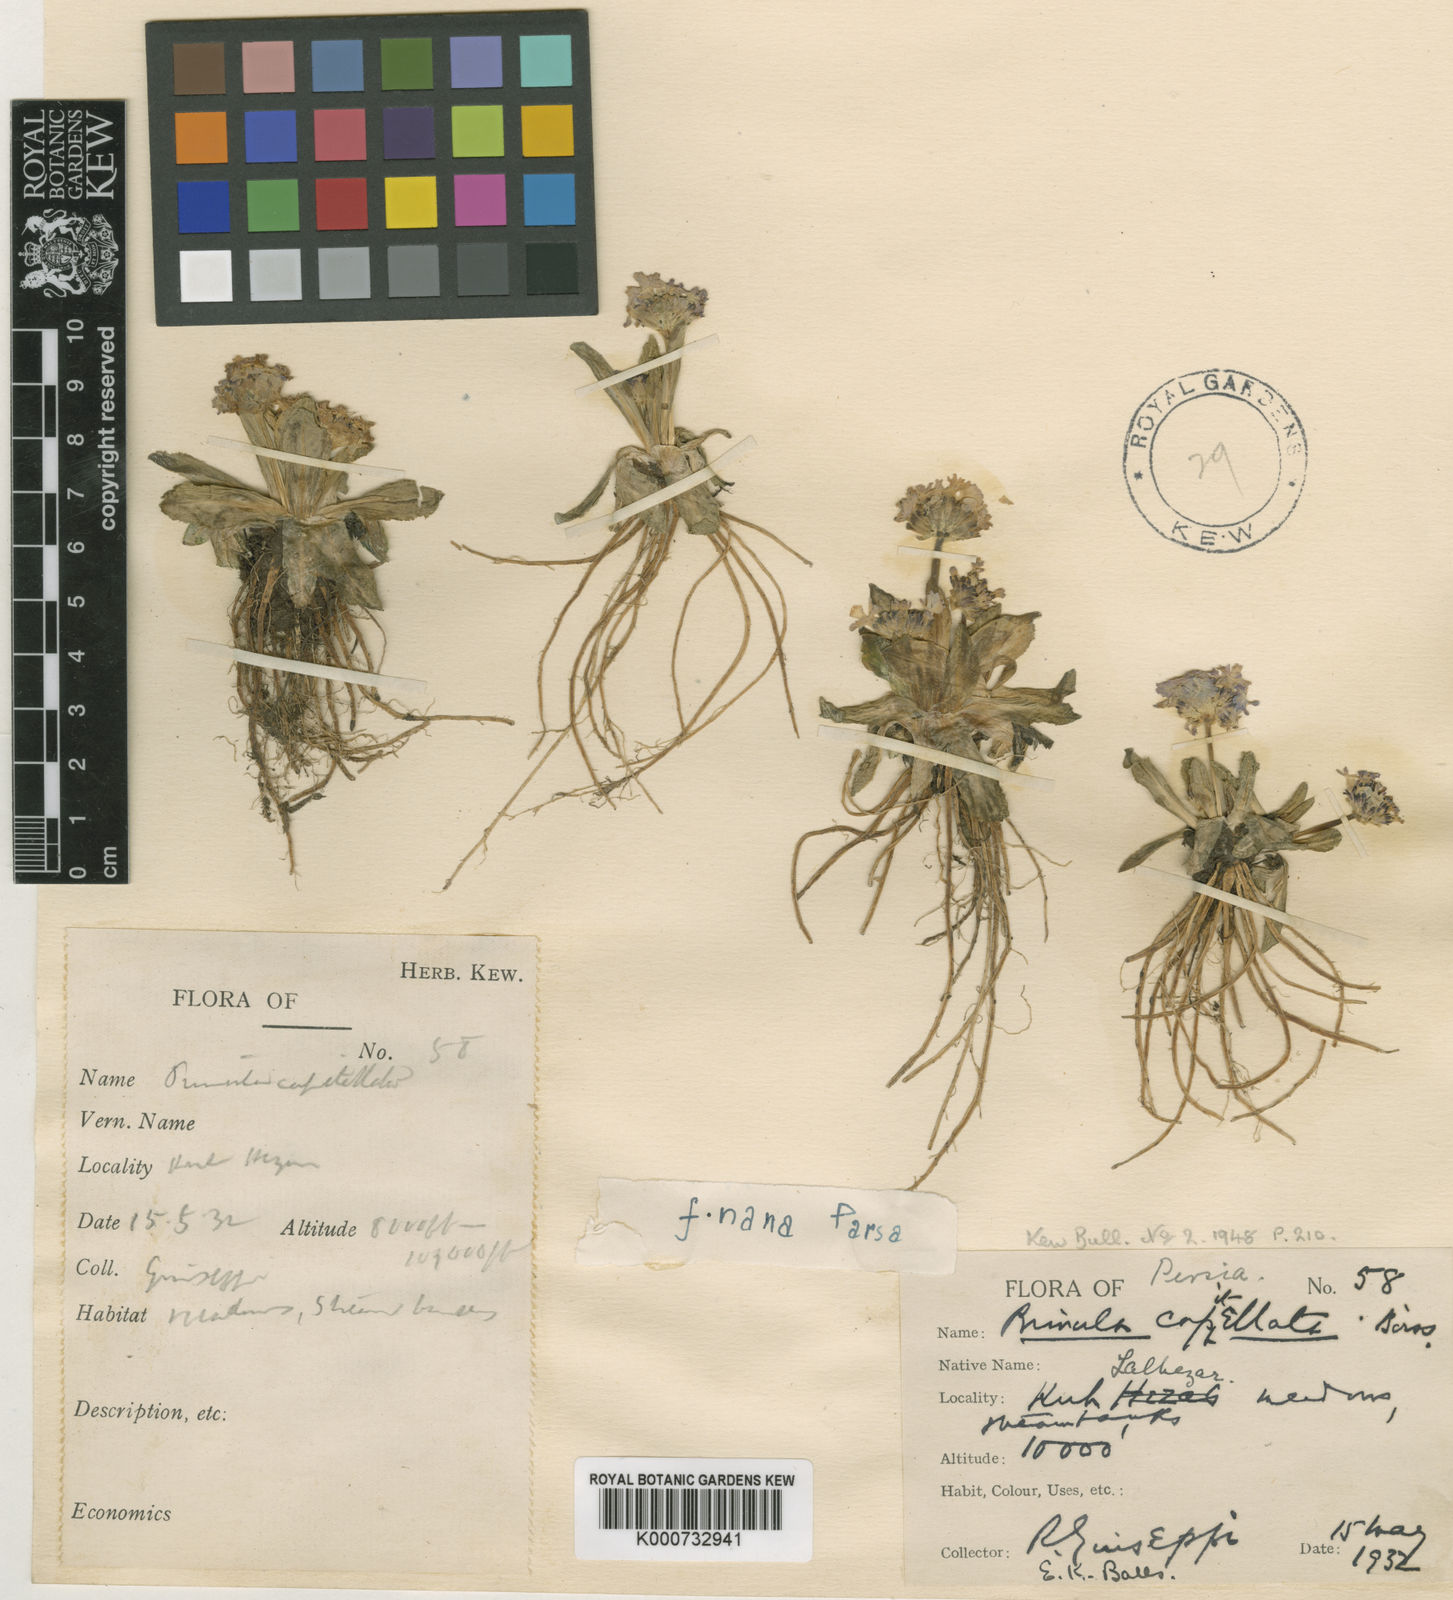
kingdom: Plantae
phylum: Tracheophyta
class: Magnoliopsida
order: Ericales
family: Primulaceae
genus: Primula
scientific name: Primula capitellata
